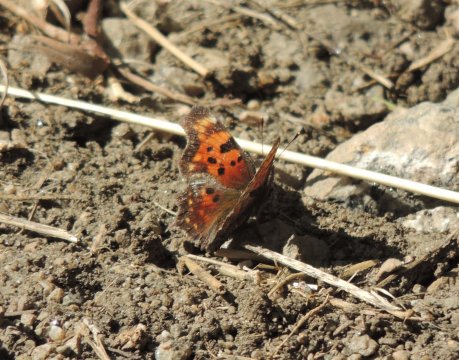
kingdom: Animalia
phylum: Arthropoda
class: Insecta
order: Lepidoptera
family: Nymphalidae
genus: Polygonia
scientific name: Polygonia faunus
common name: Green Comma
